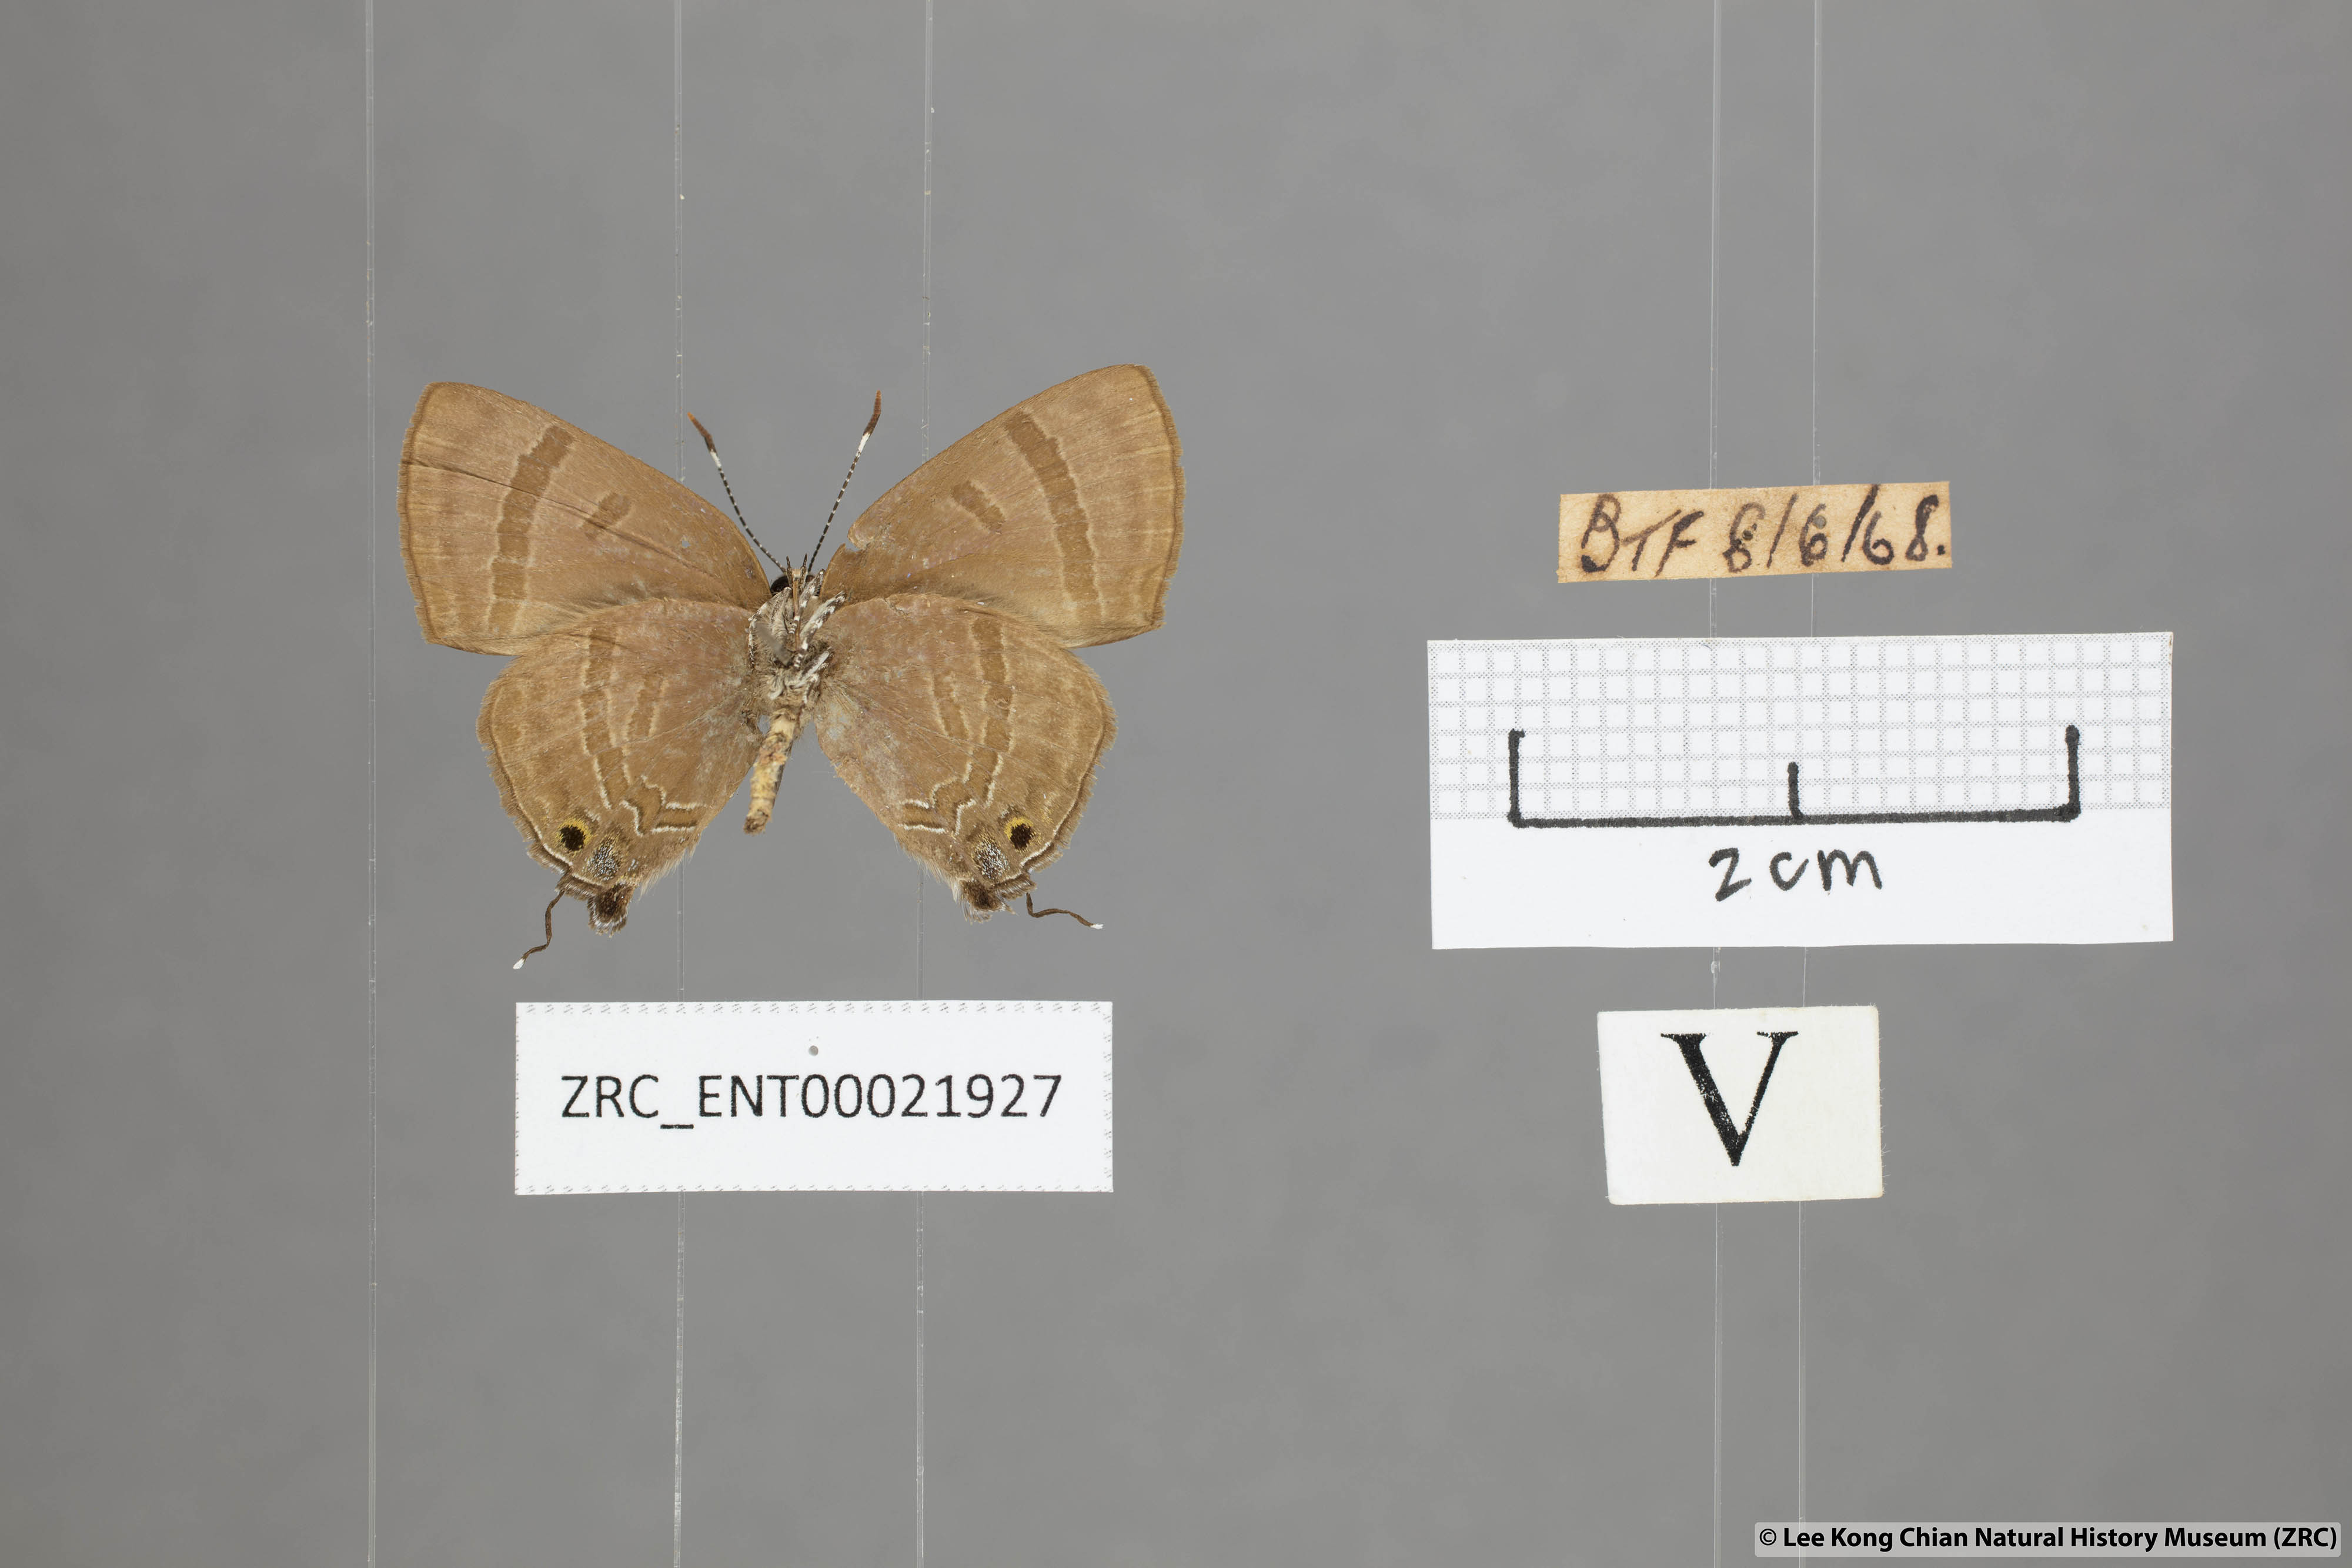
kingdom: Animalia
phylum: Arthropoda
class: Insecta
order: Lepidoptera
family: Lycaenidae
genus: Rapala
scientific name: Rapala varuna
